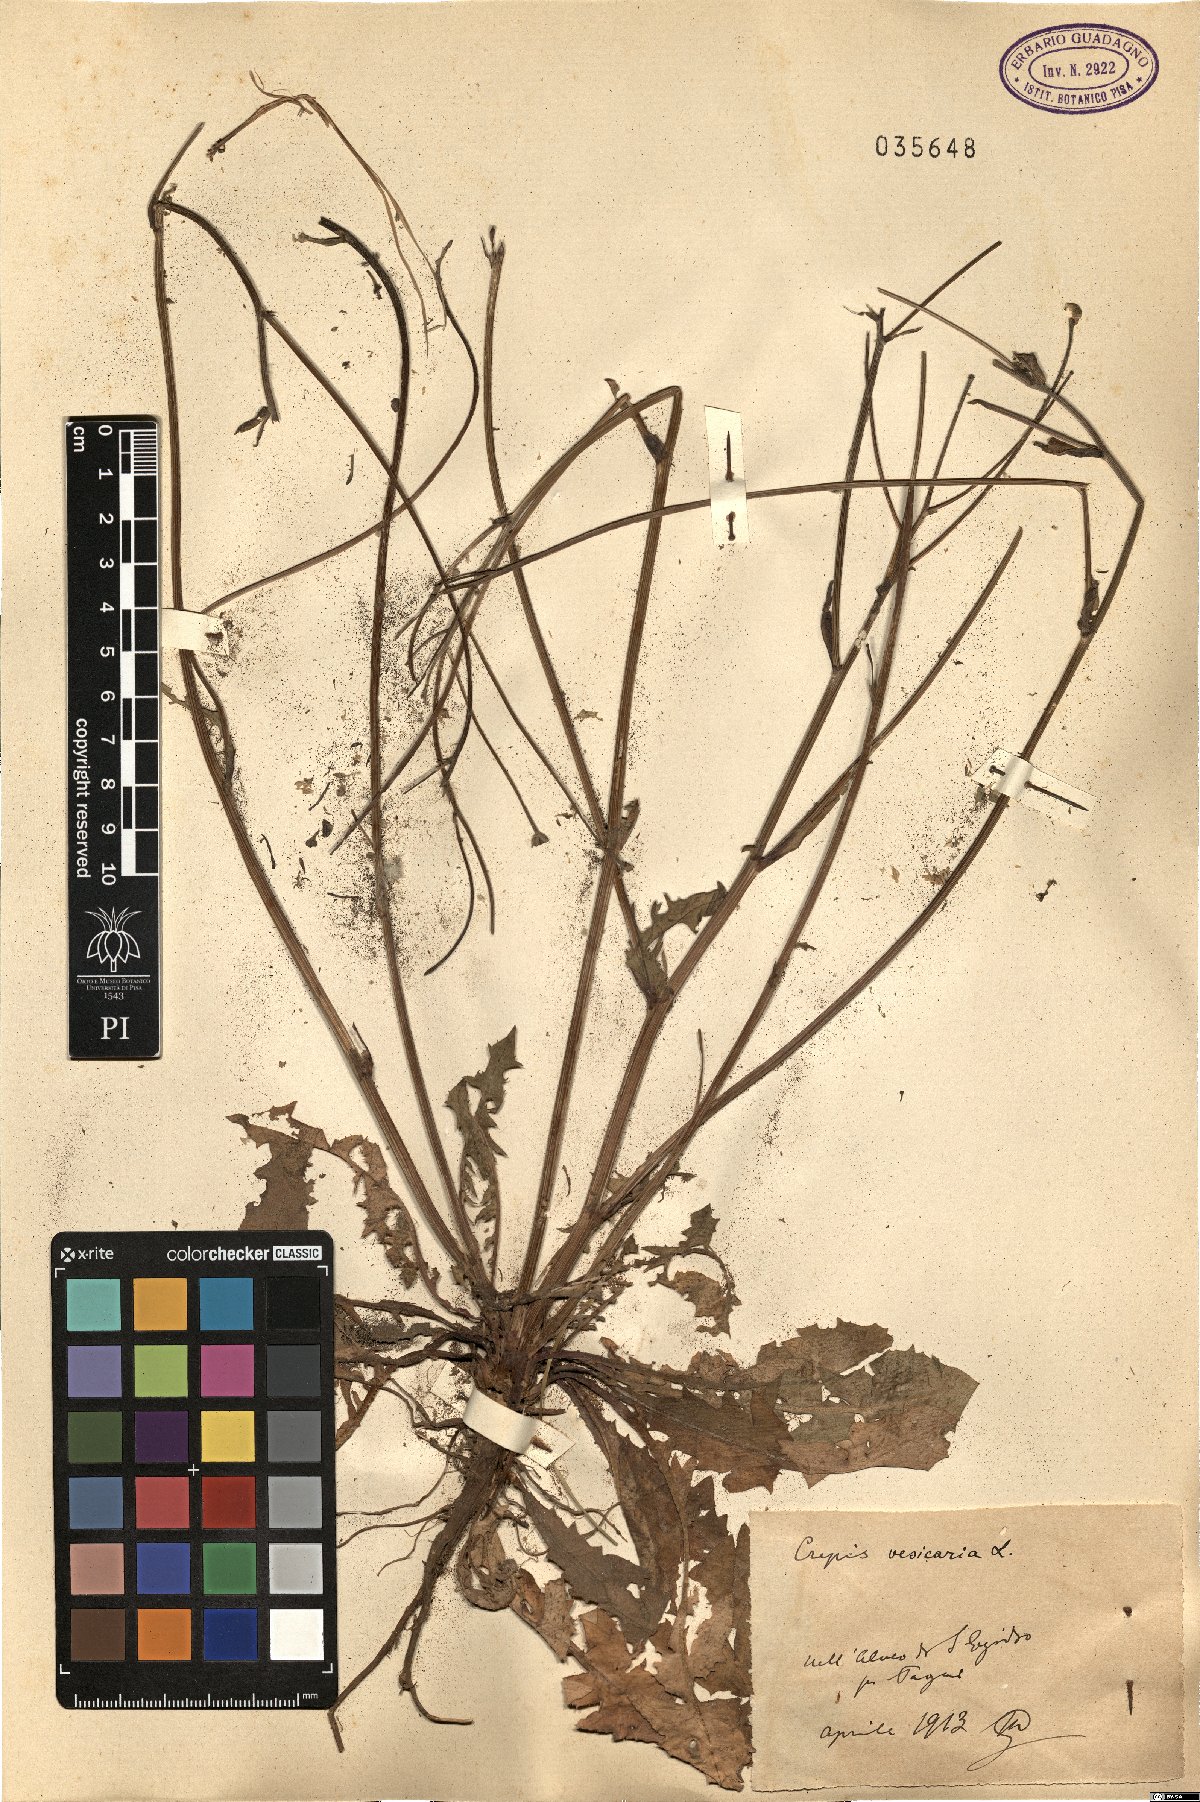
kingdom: Plantae
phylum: Tracheophyta
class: Magnoliopsida
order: Asterales
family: Asteraceae
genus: Crepis
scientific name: Crepis vesicaria
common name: Beaked hawksbeard
